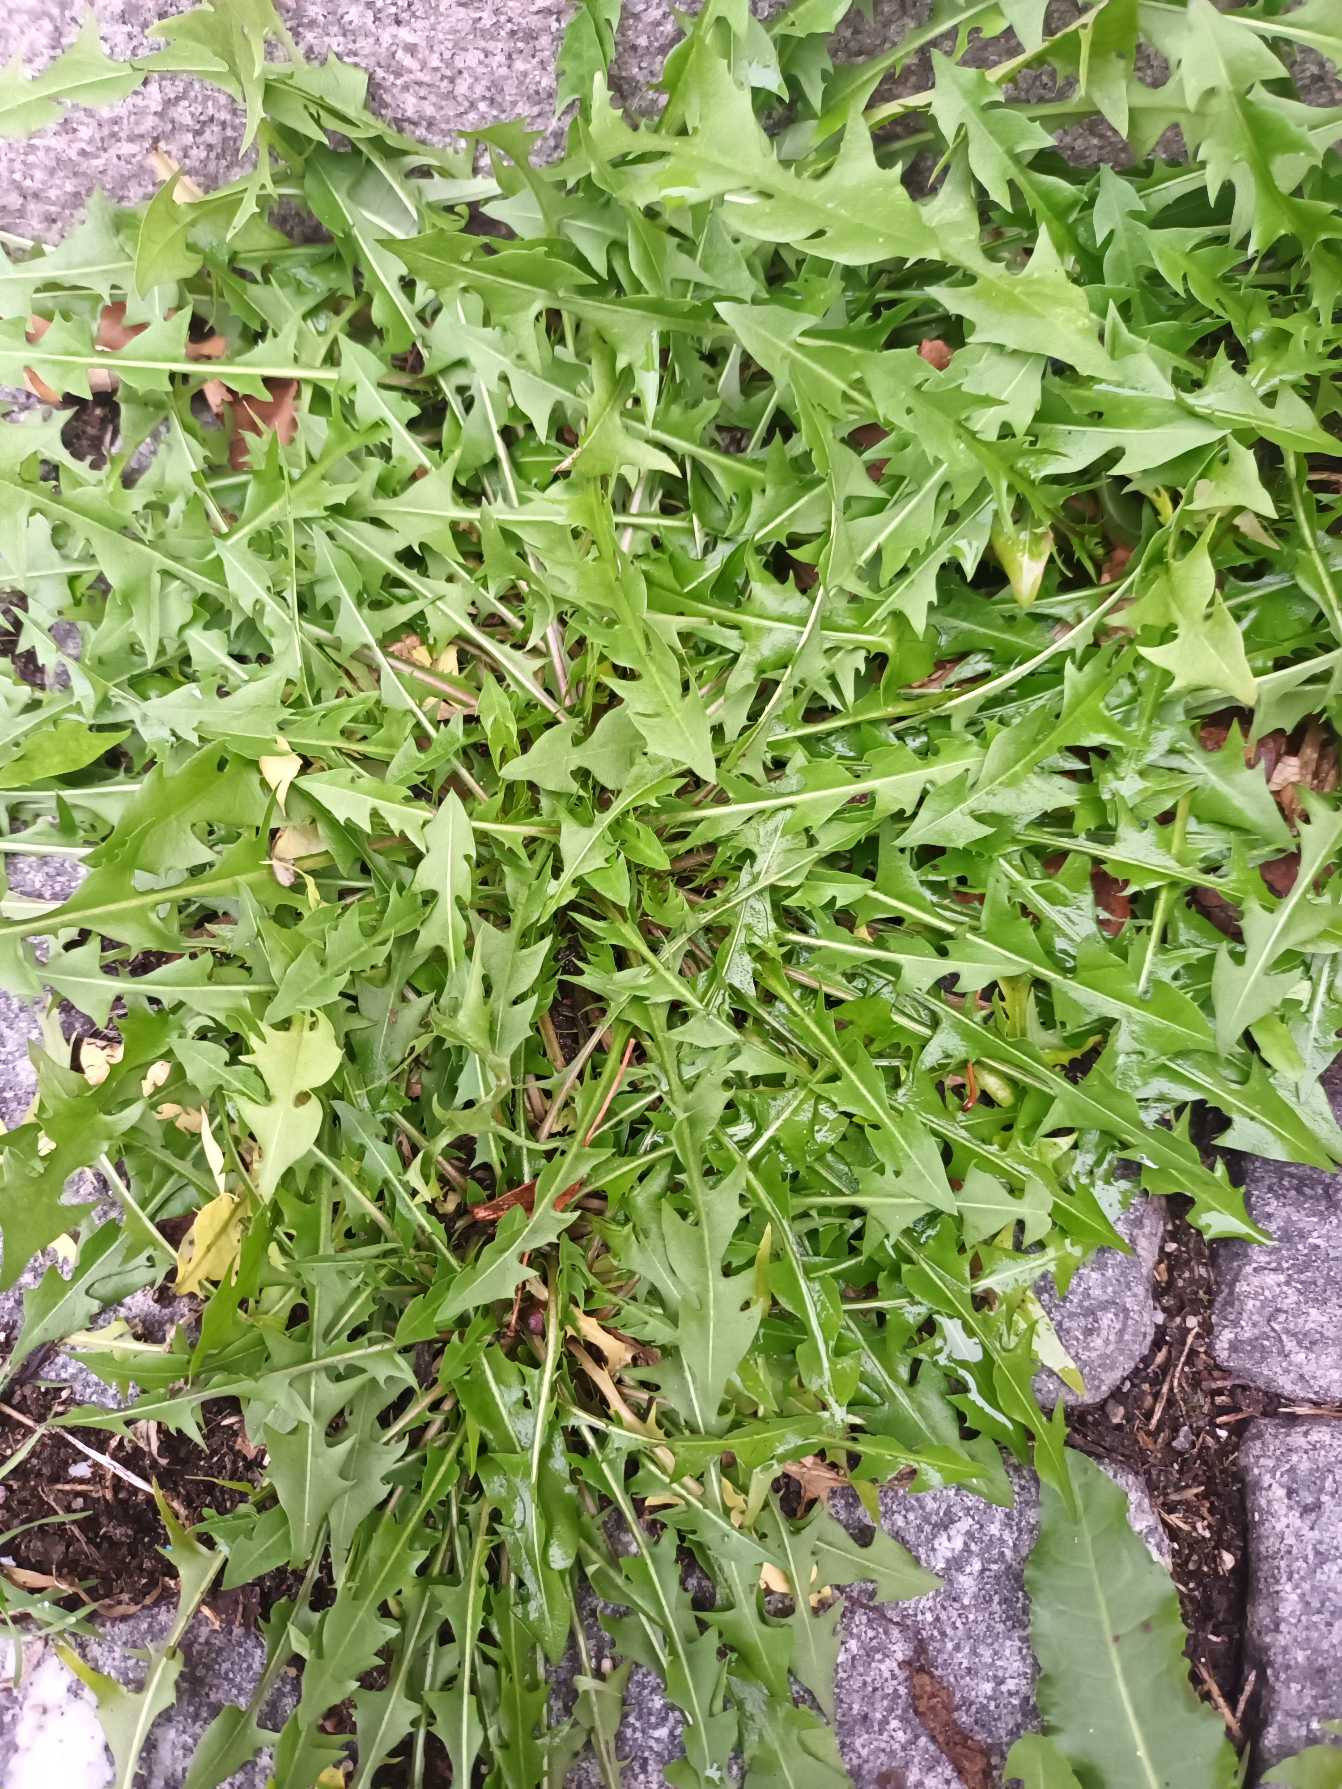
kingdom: Plantae
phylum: Tracheophyta
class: Magnoliopsida
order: Asterales
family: Asteraceae
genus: Taraxacum
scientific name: Taraxacum
